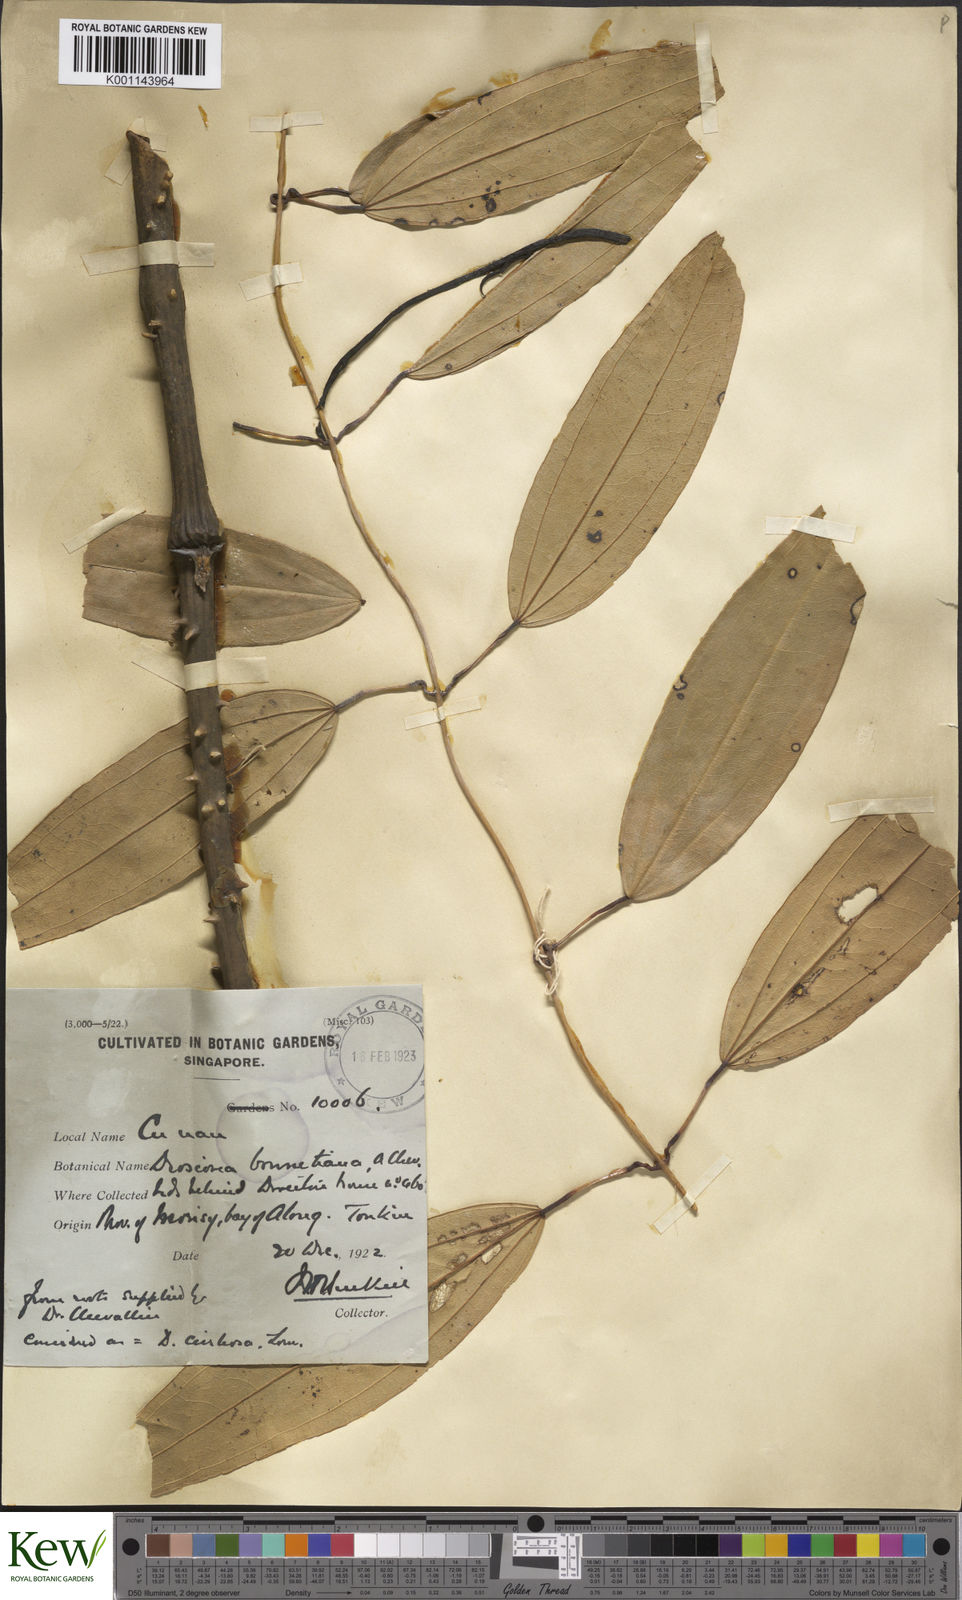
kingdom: Plantae
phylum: Tracheophyta
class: Liliopsida
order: Dioscoreales
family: Dioscoreaceae
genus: Dioscorea
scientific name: Dioscorea cirrhosa
